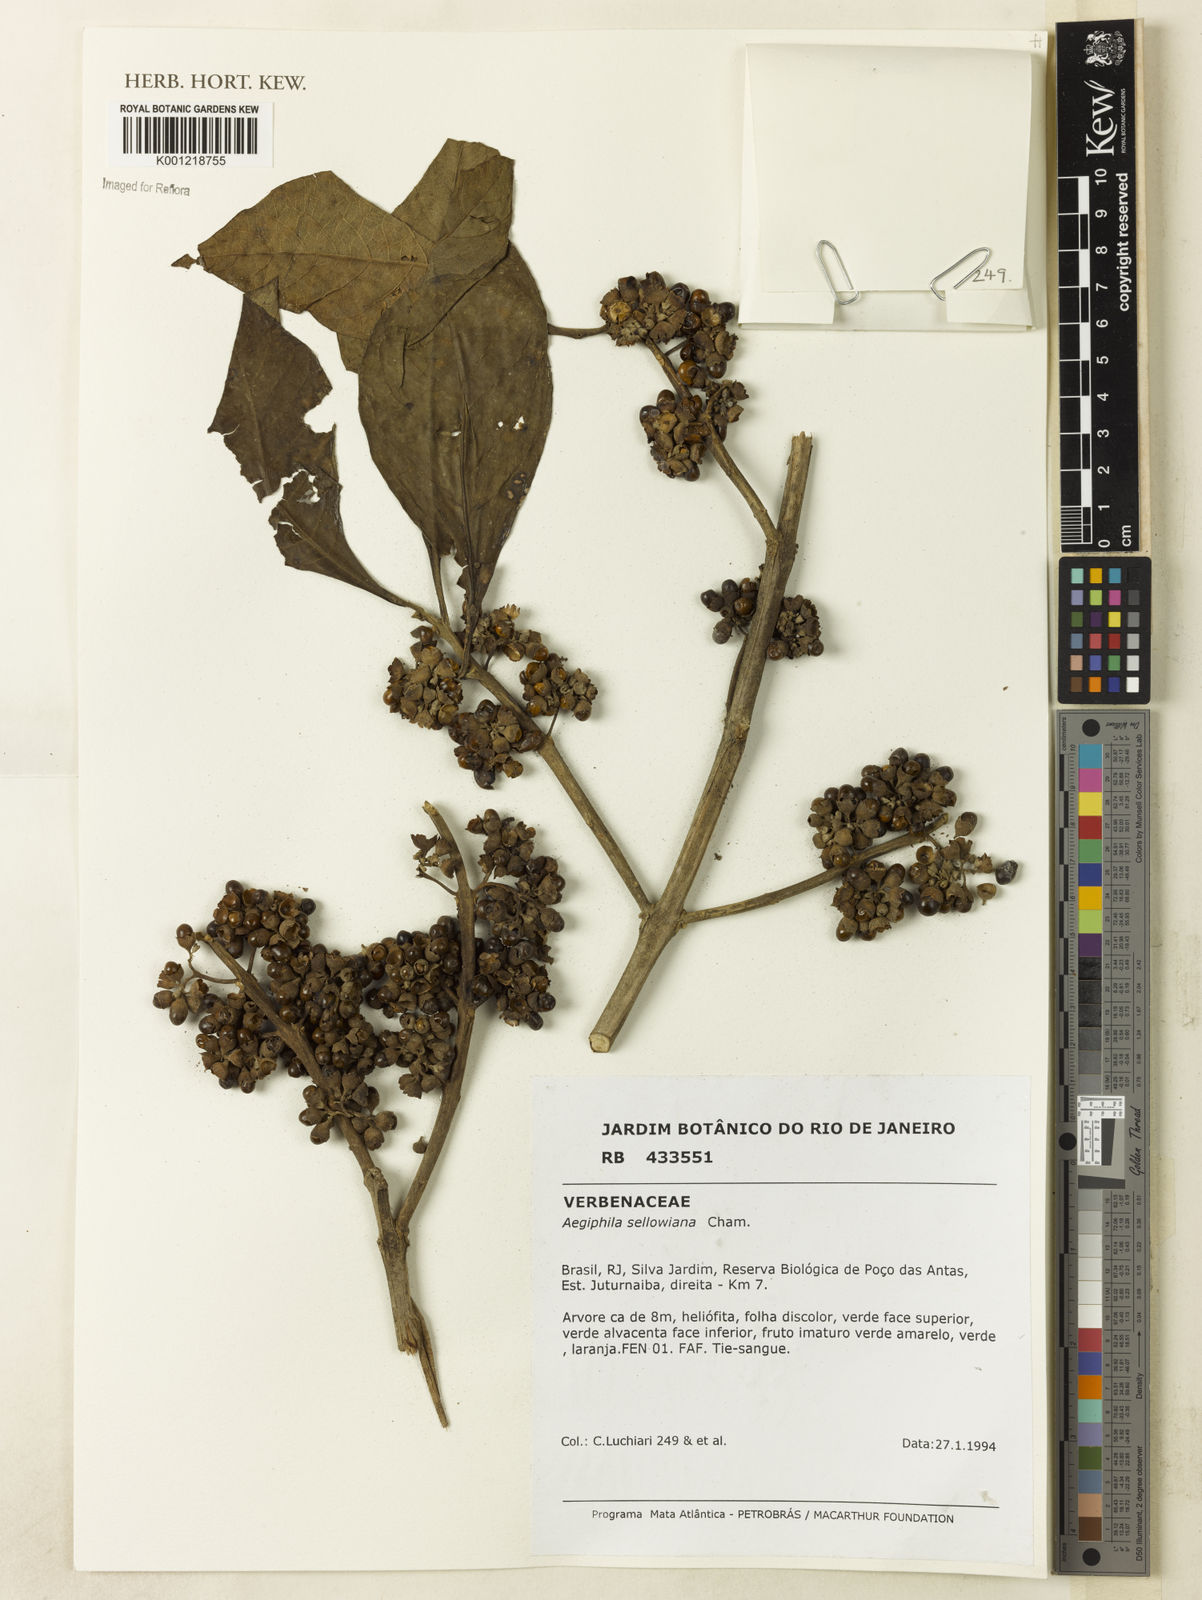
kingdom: Plantae
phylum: Tracheophyta
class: Magnoliopsida
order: Lamiales
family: Lamiaceae
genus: Aegiphila
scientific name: Aegiphila verticillata
